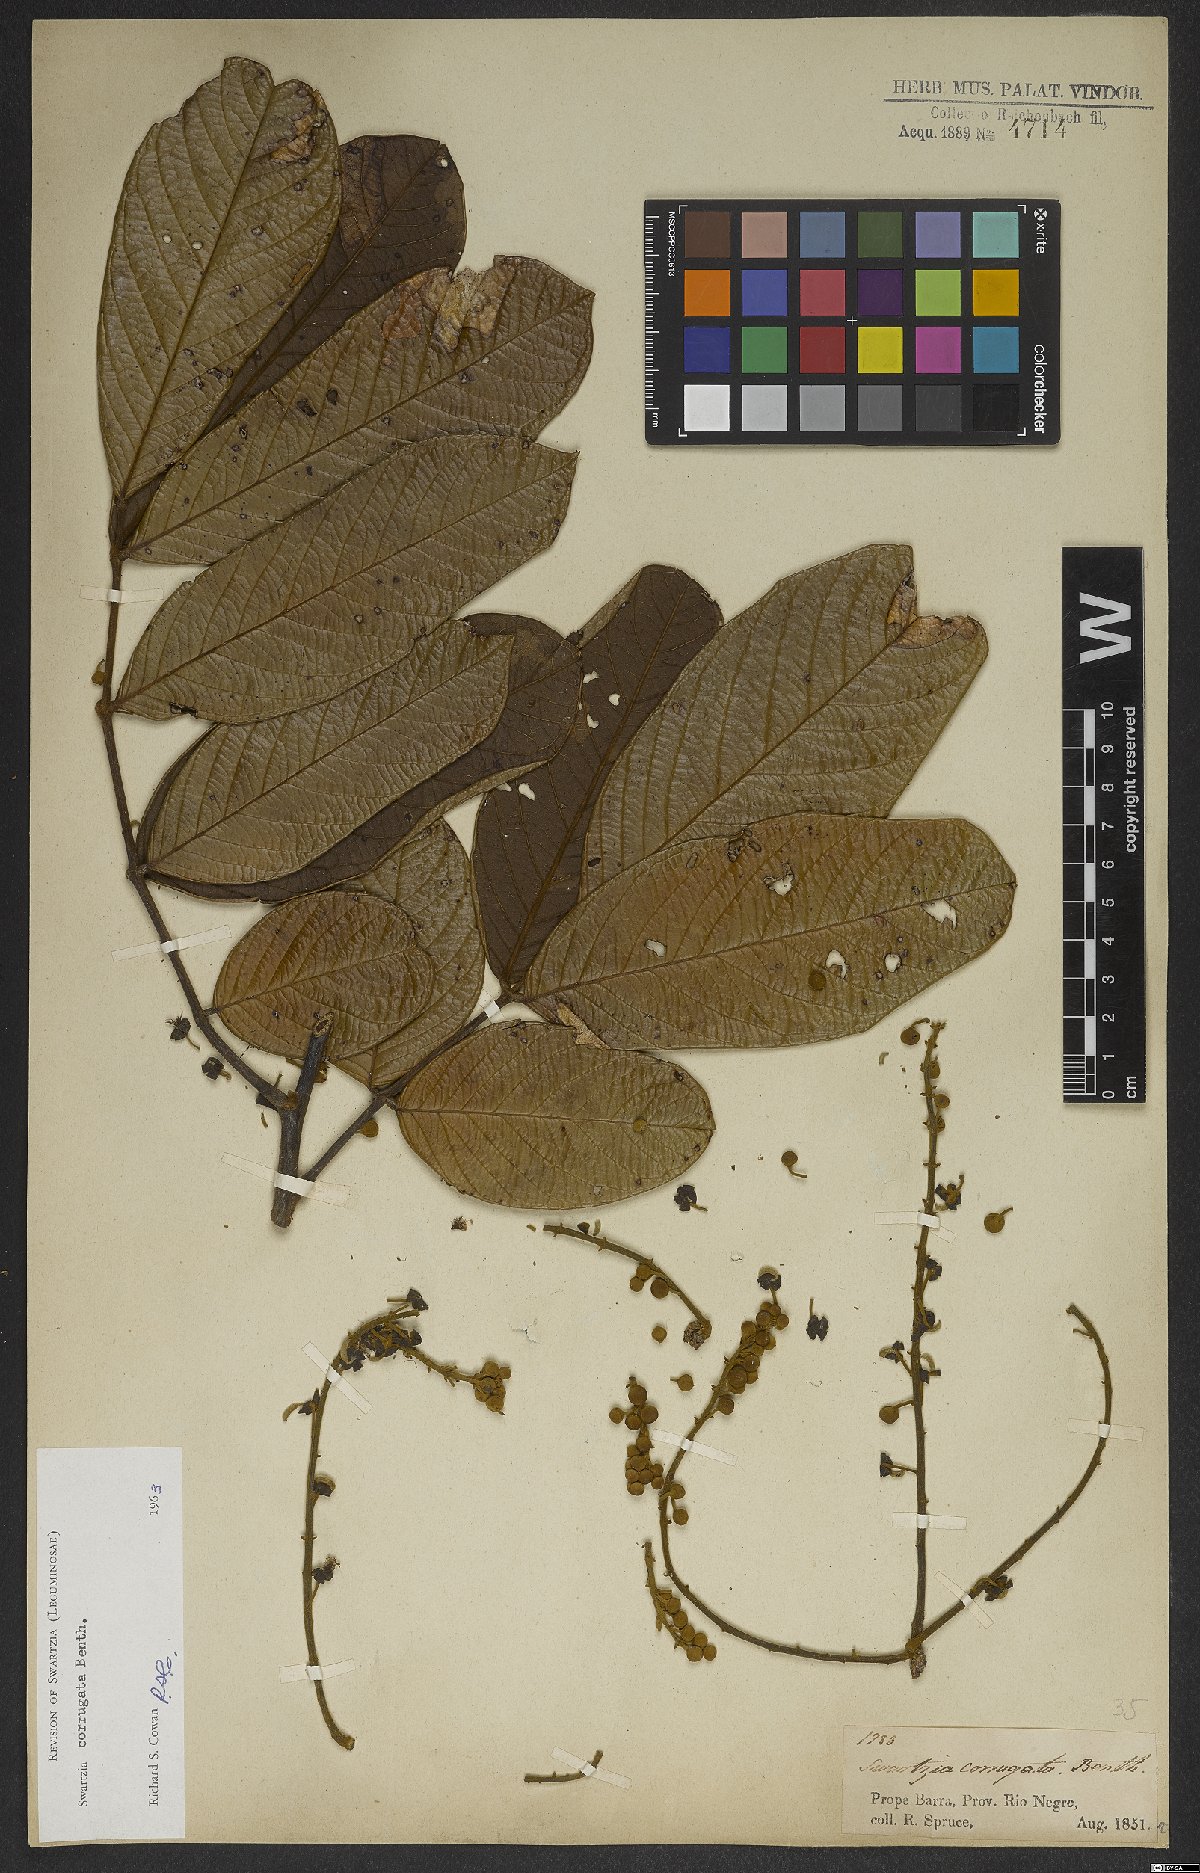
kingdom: Plantae
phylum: Tracheophyta
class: Magnoliopsida
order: Fabales
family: Fabaceae
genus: Swartzia
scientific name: Swartzia corrugata
